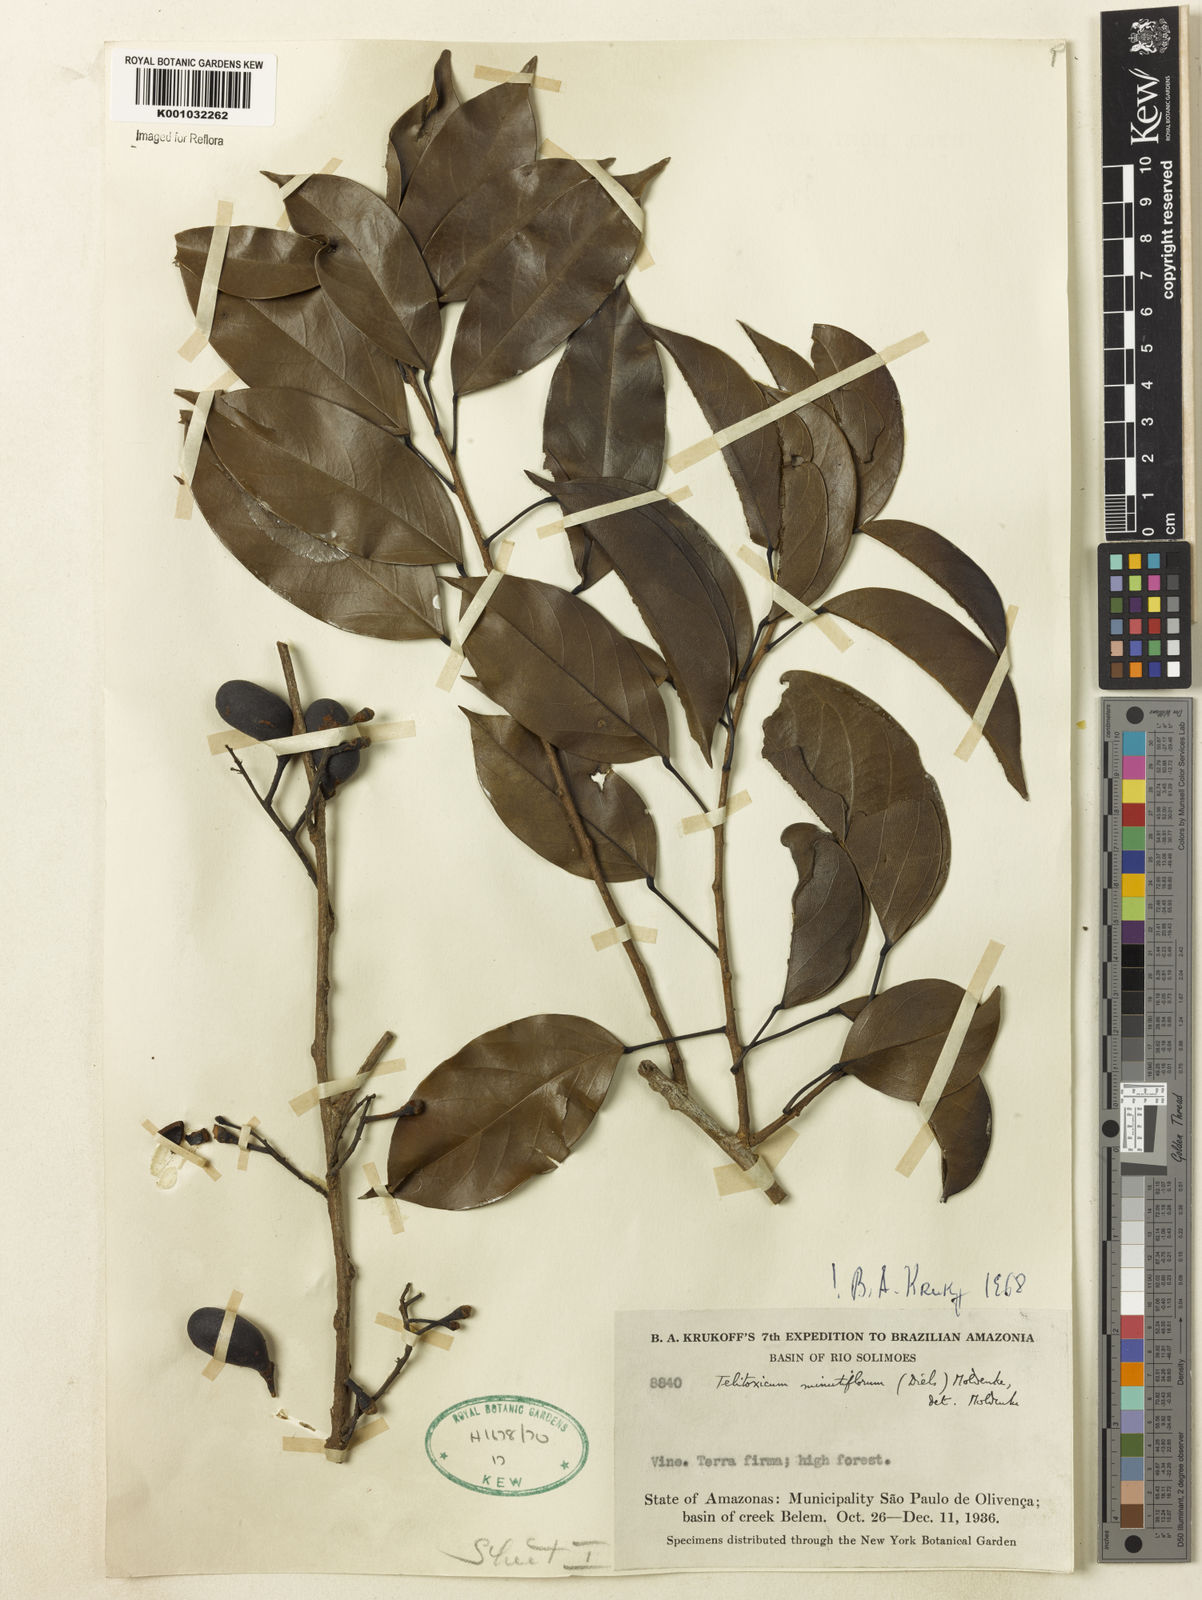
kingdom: Plantae
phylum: Tracheophyta
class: Magnoliopsida
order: Ranunculales
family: Menispermaceae
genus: Telitoxicum
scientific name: Telitoxicum minutiflorum
